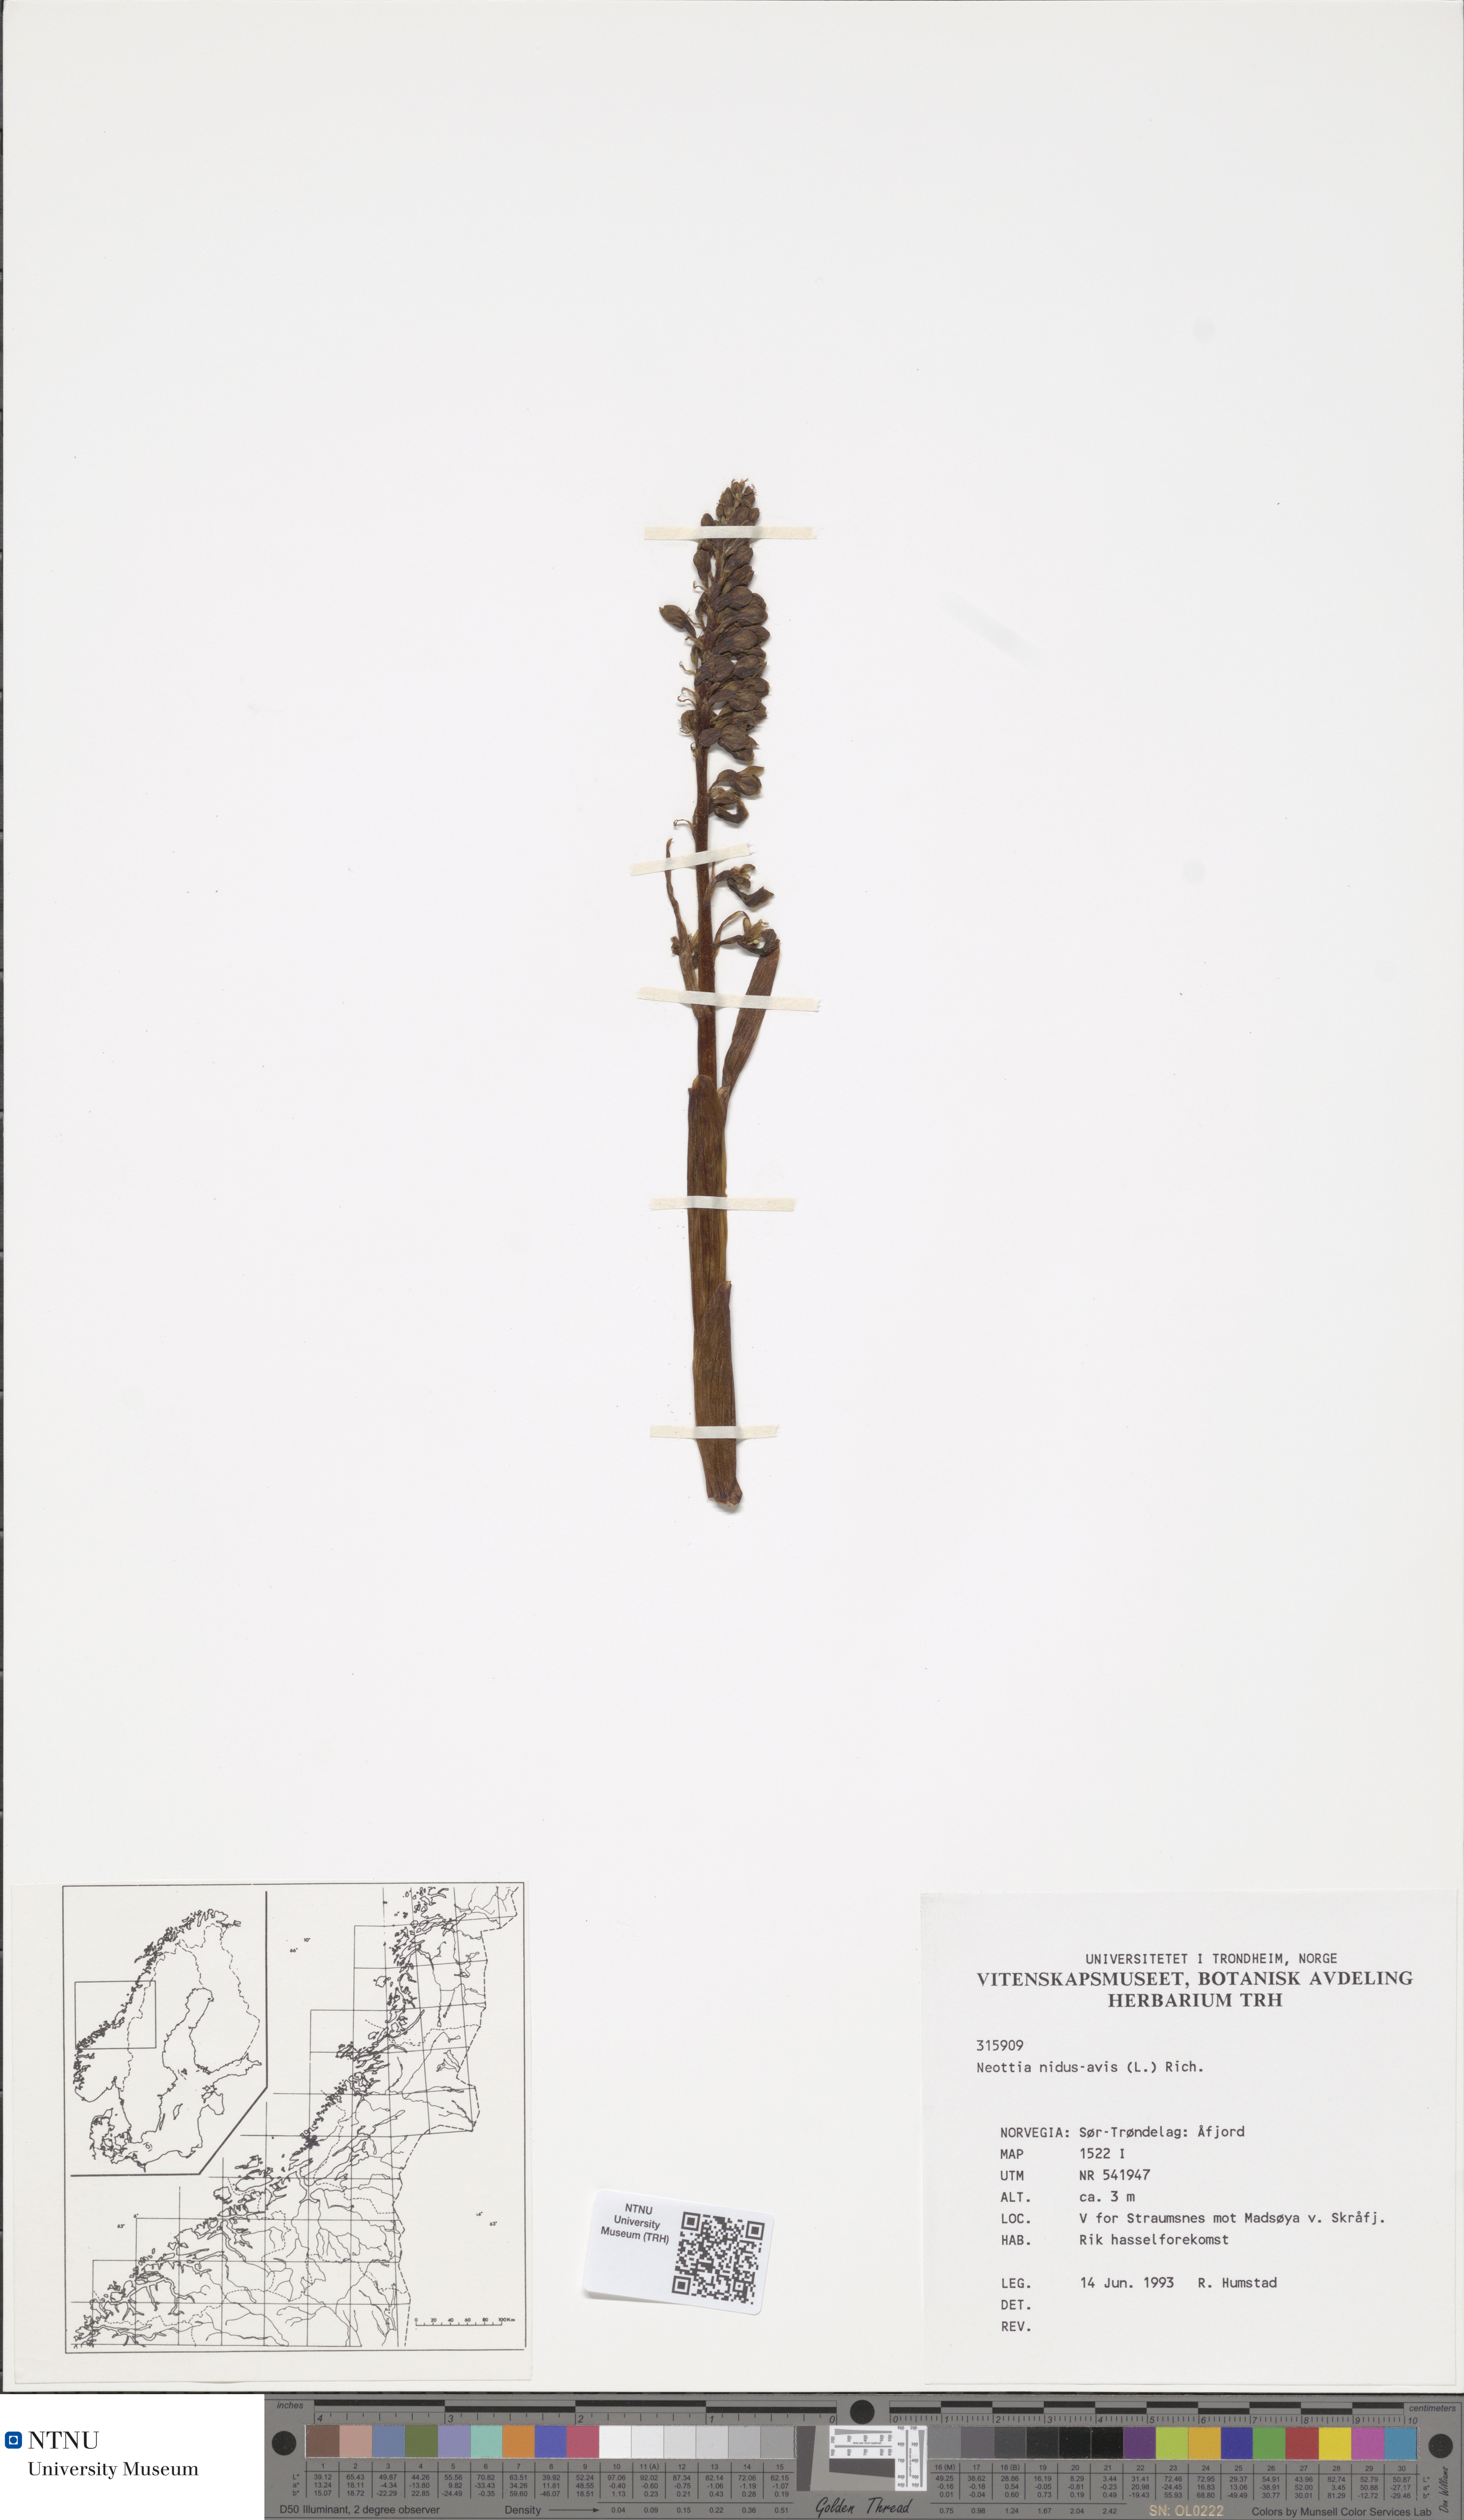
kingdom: Plantae
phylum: Tracheophyta
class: Liliopsida
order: Asparagales
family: Orchidaceae
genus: Neottia
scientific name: Neottia nidus-avis
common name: Bird's-nest orchid
